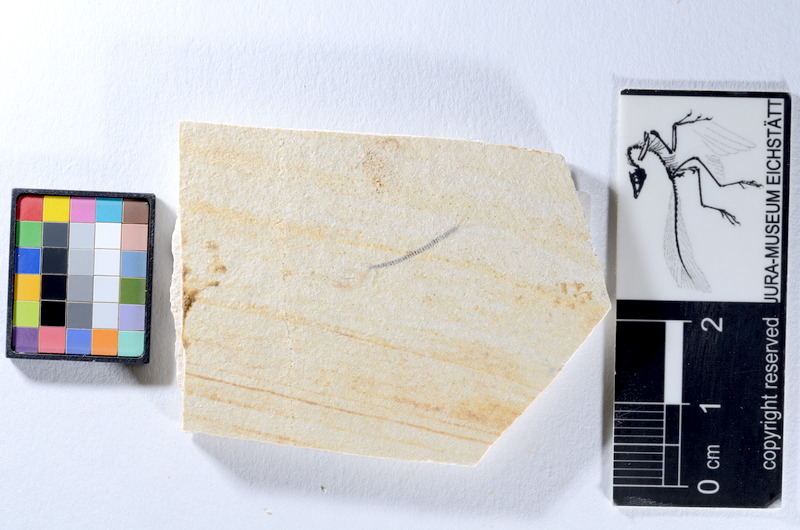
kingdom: Animalia
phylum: Chordata
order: Salmoniformes
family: Orthogonikleithridae
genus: Orthogonikleithrus
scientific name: Orthogonikleithrus hoelli
